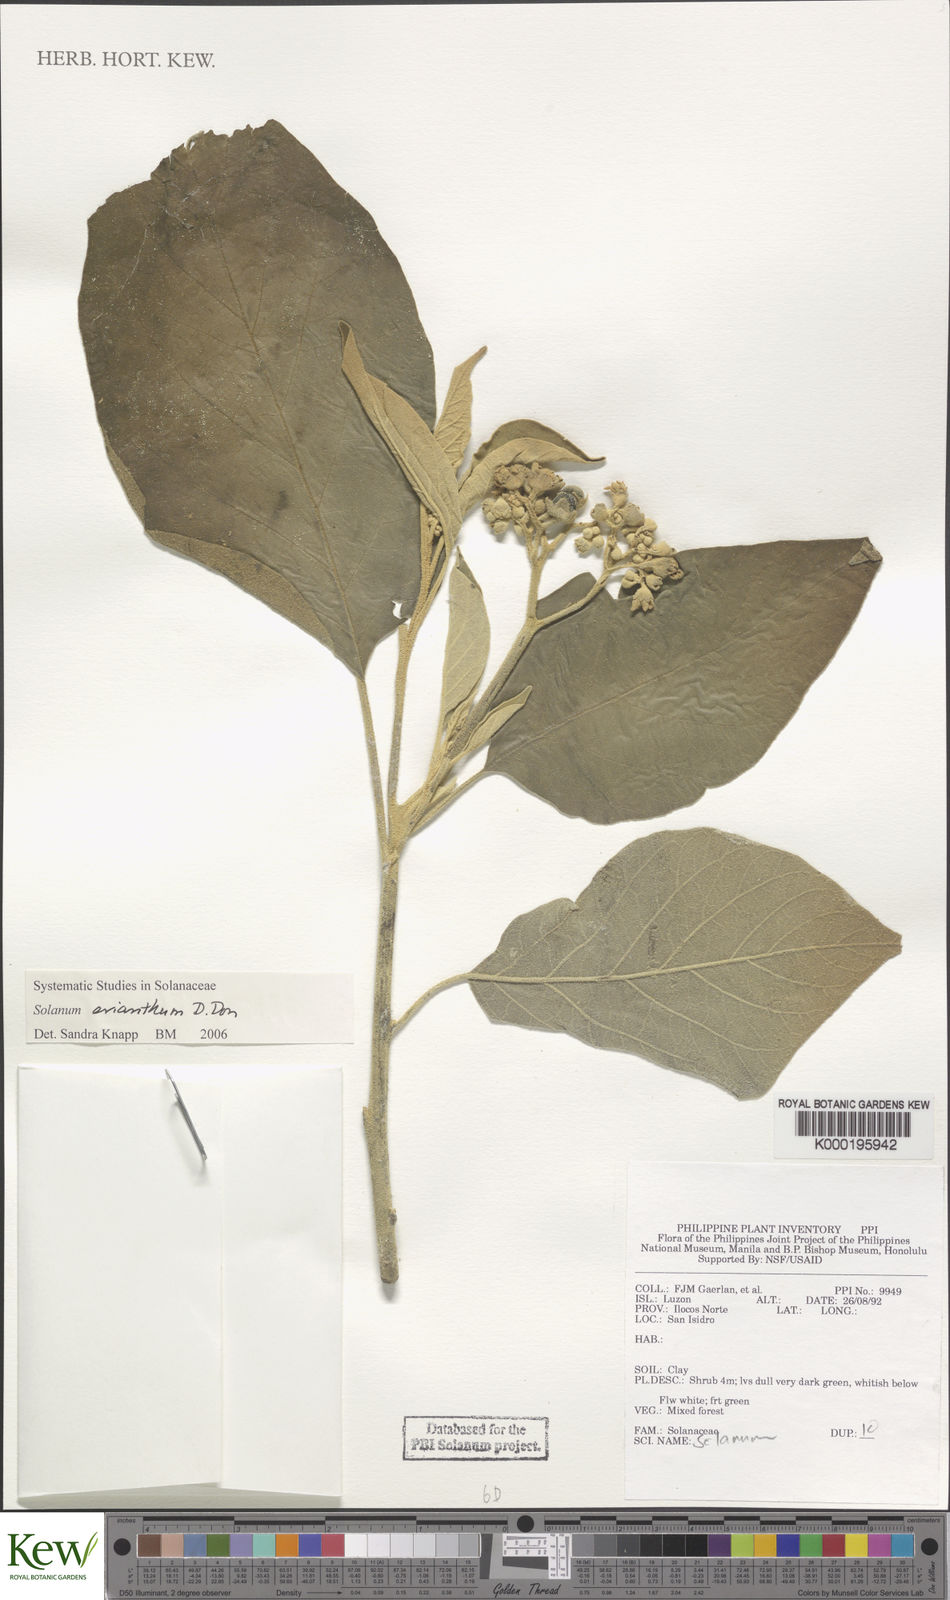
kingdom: Plantae
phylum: Tracheophyta
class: Magnoliopsida
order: Solanales
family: Solanaceae
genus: Solanum
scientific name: Solanum erianthum
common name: Tobacco-tree
